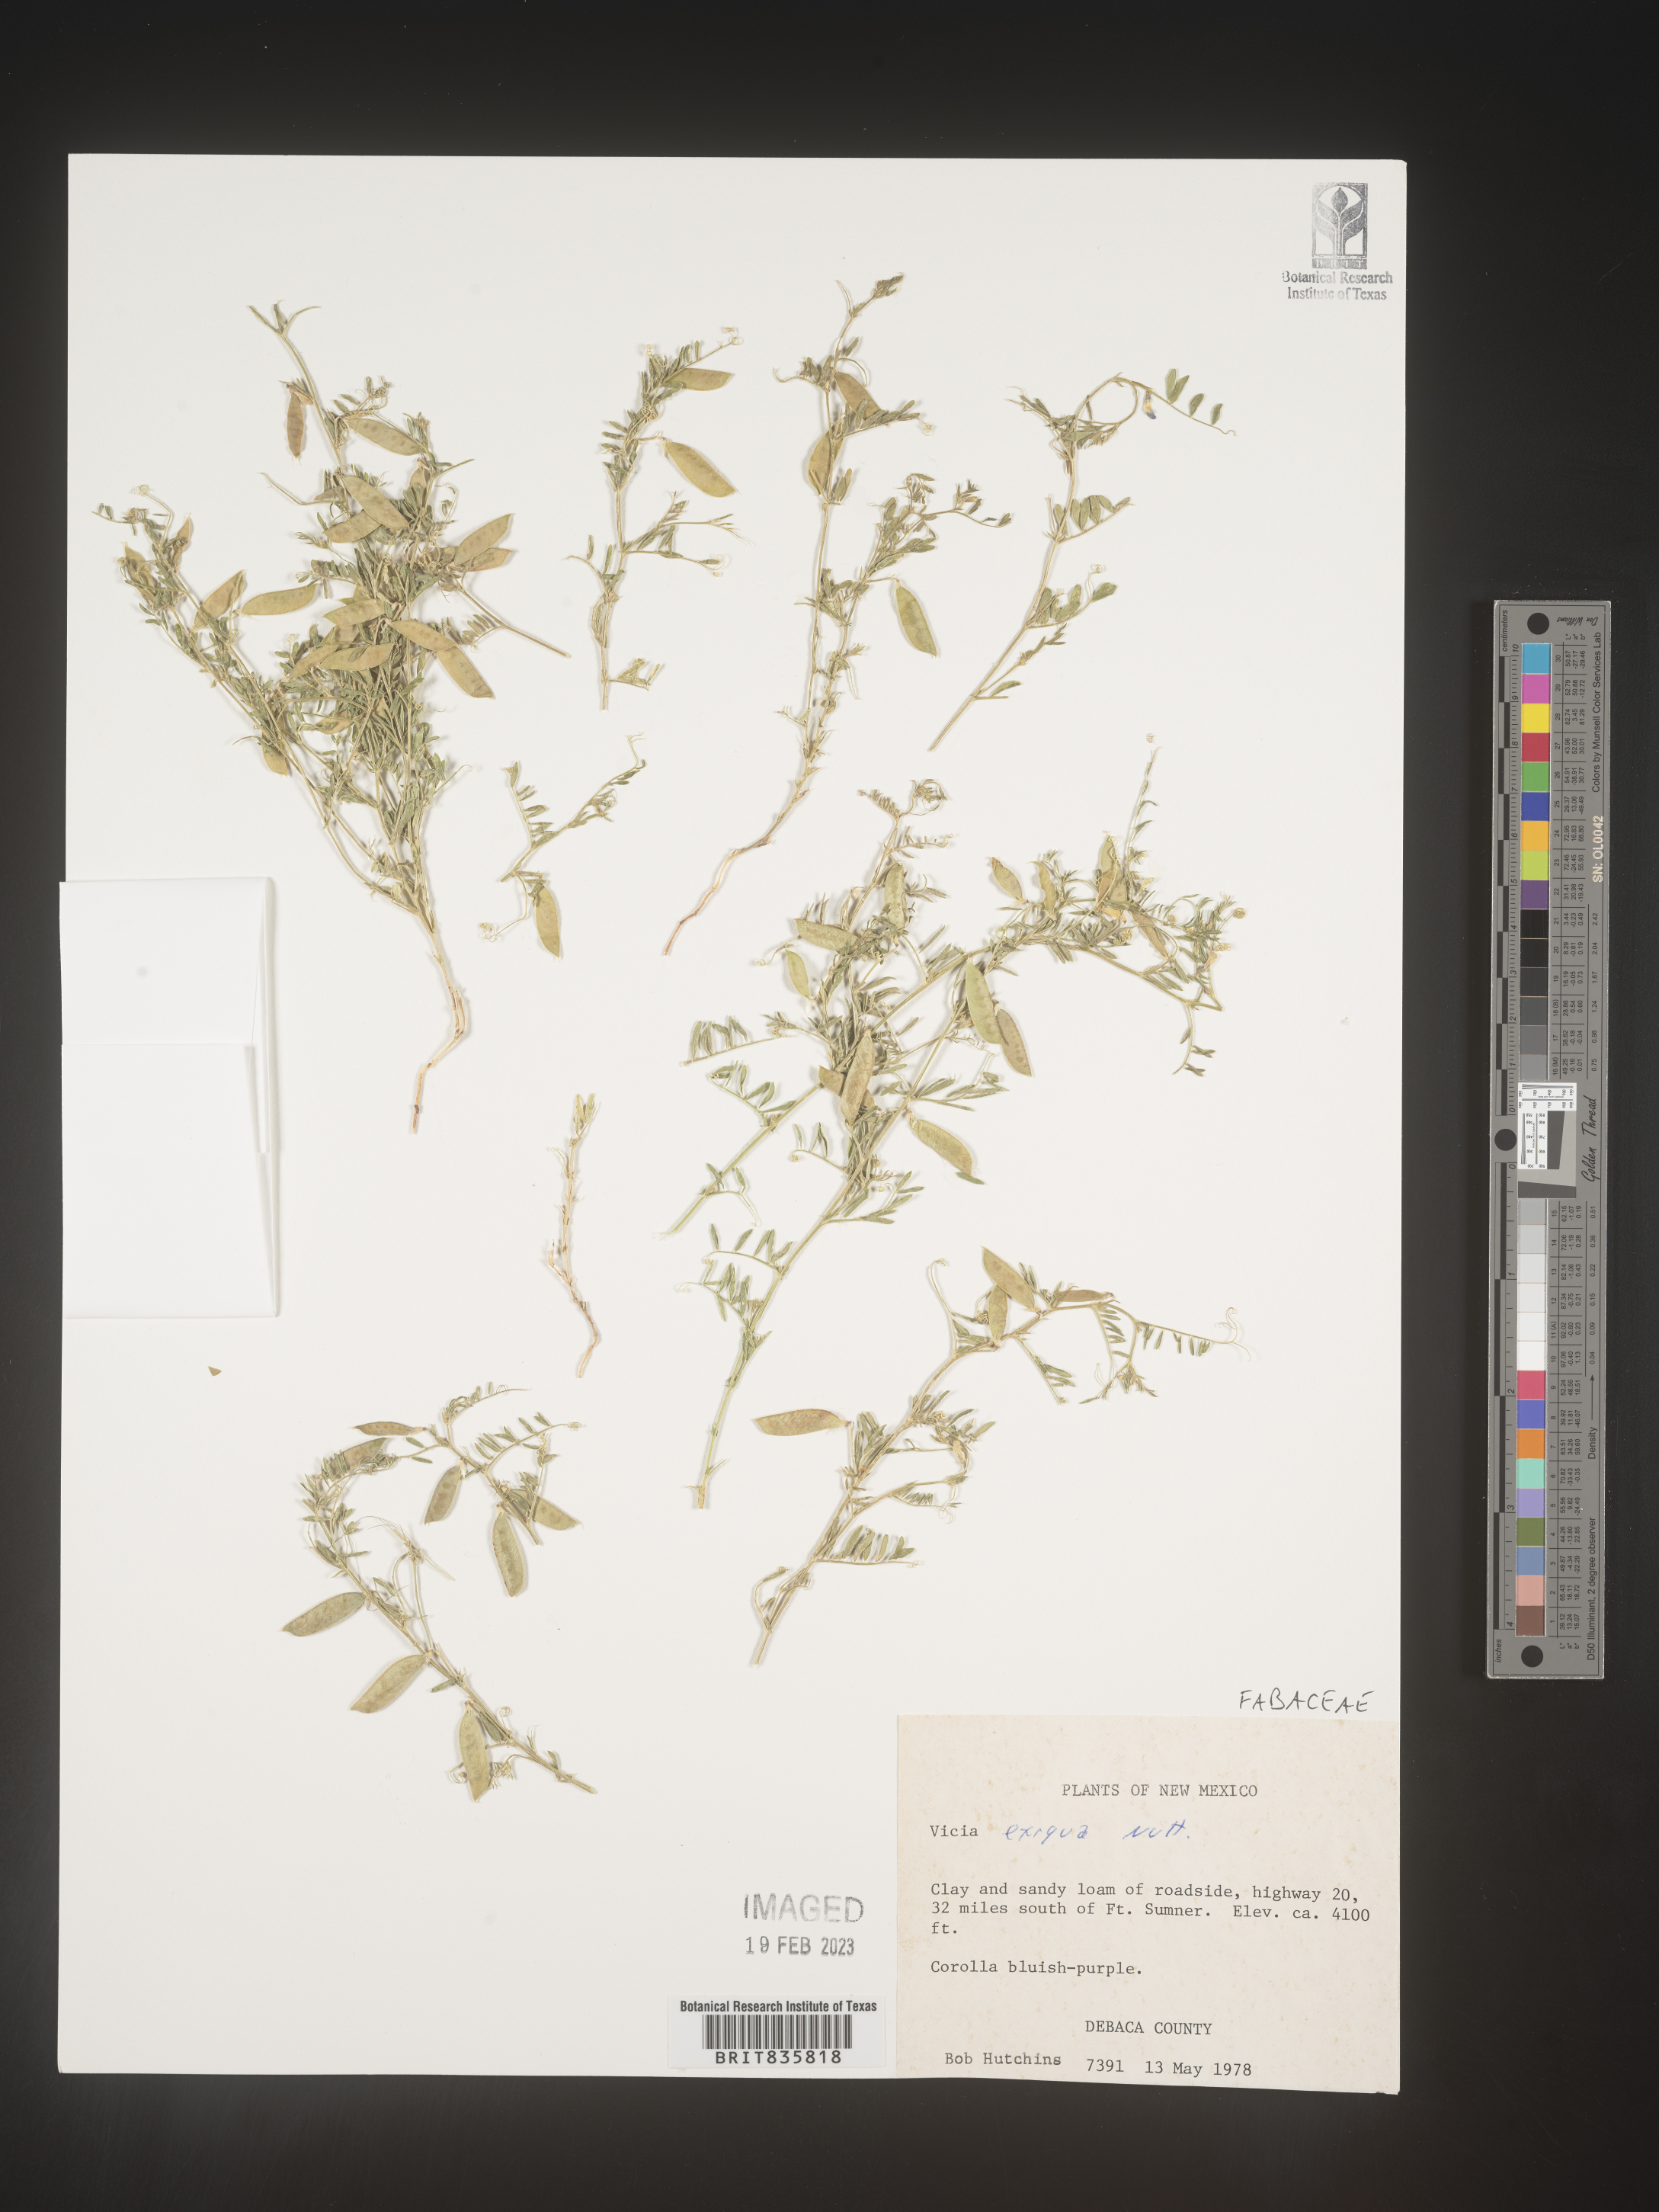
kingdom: Plantae
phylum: Tracheophyta
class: Magnoliopsida
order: Fabales
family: Fabaceae
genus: Vicia
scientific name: Vicia
